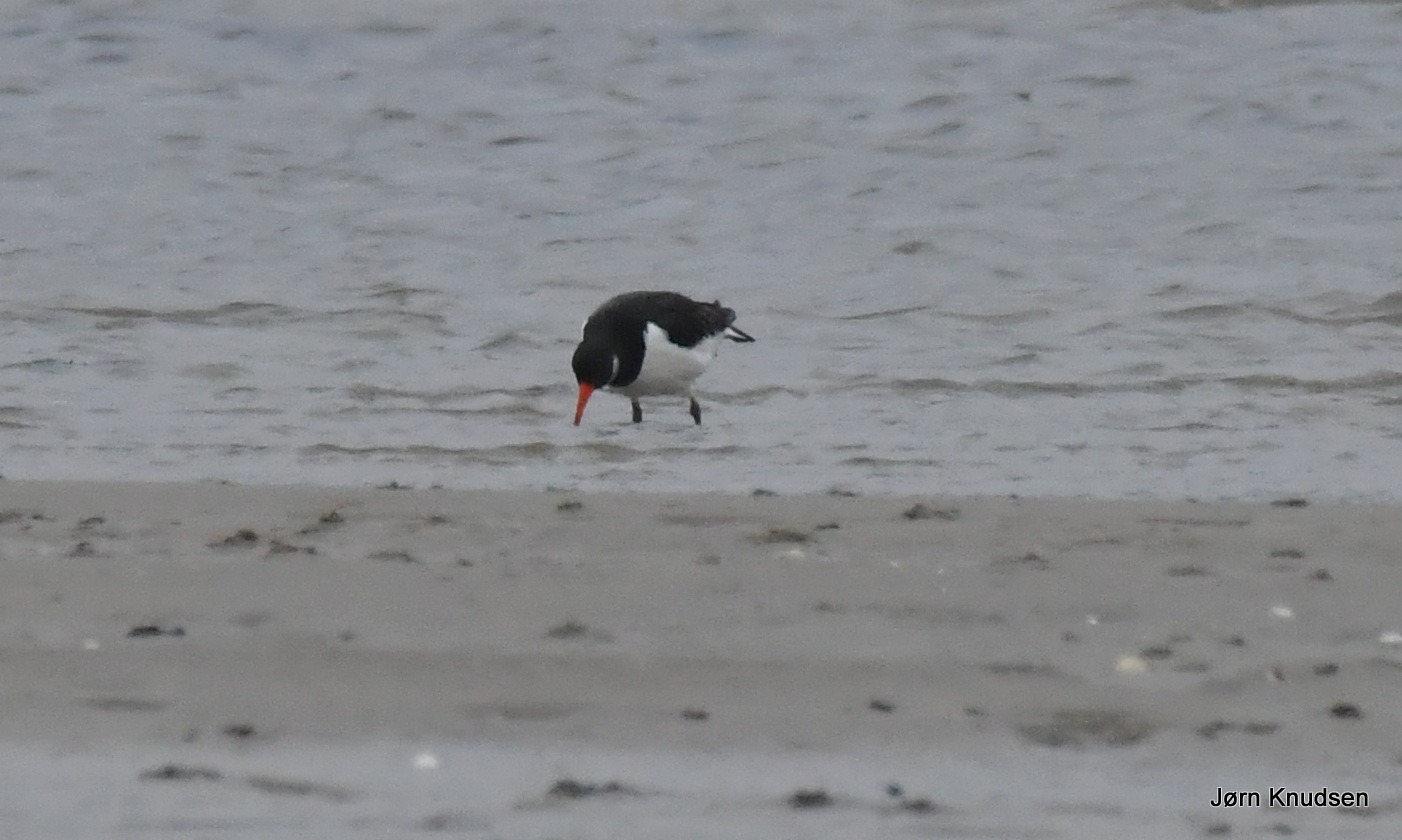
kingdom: Animalia
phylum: Chordata
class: Aves
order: Charadriiformes
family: Haematopodidae
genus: Haematopus
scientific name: Haematopus ostralegus
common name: Strandskade
